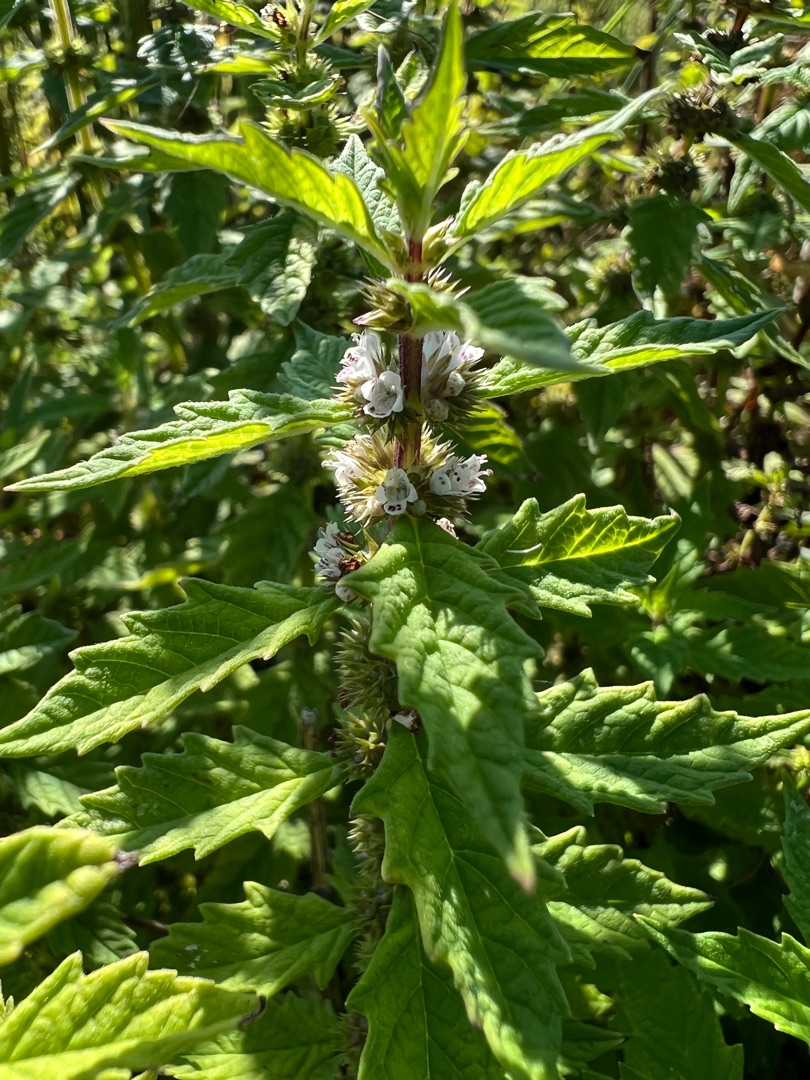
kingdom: Plantae
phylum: Tracheophyta
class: Magnoliopsida
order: Lamiales
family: Lamiaceae
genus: Lycopus
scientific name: Lycopus europaeus
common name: Sværtevæld
